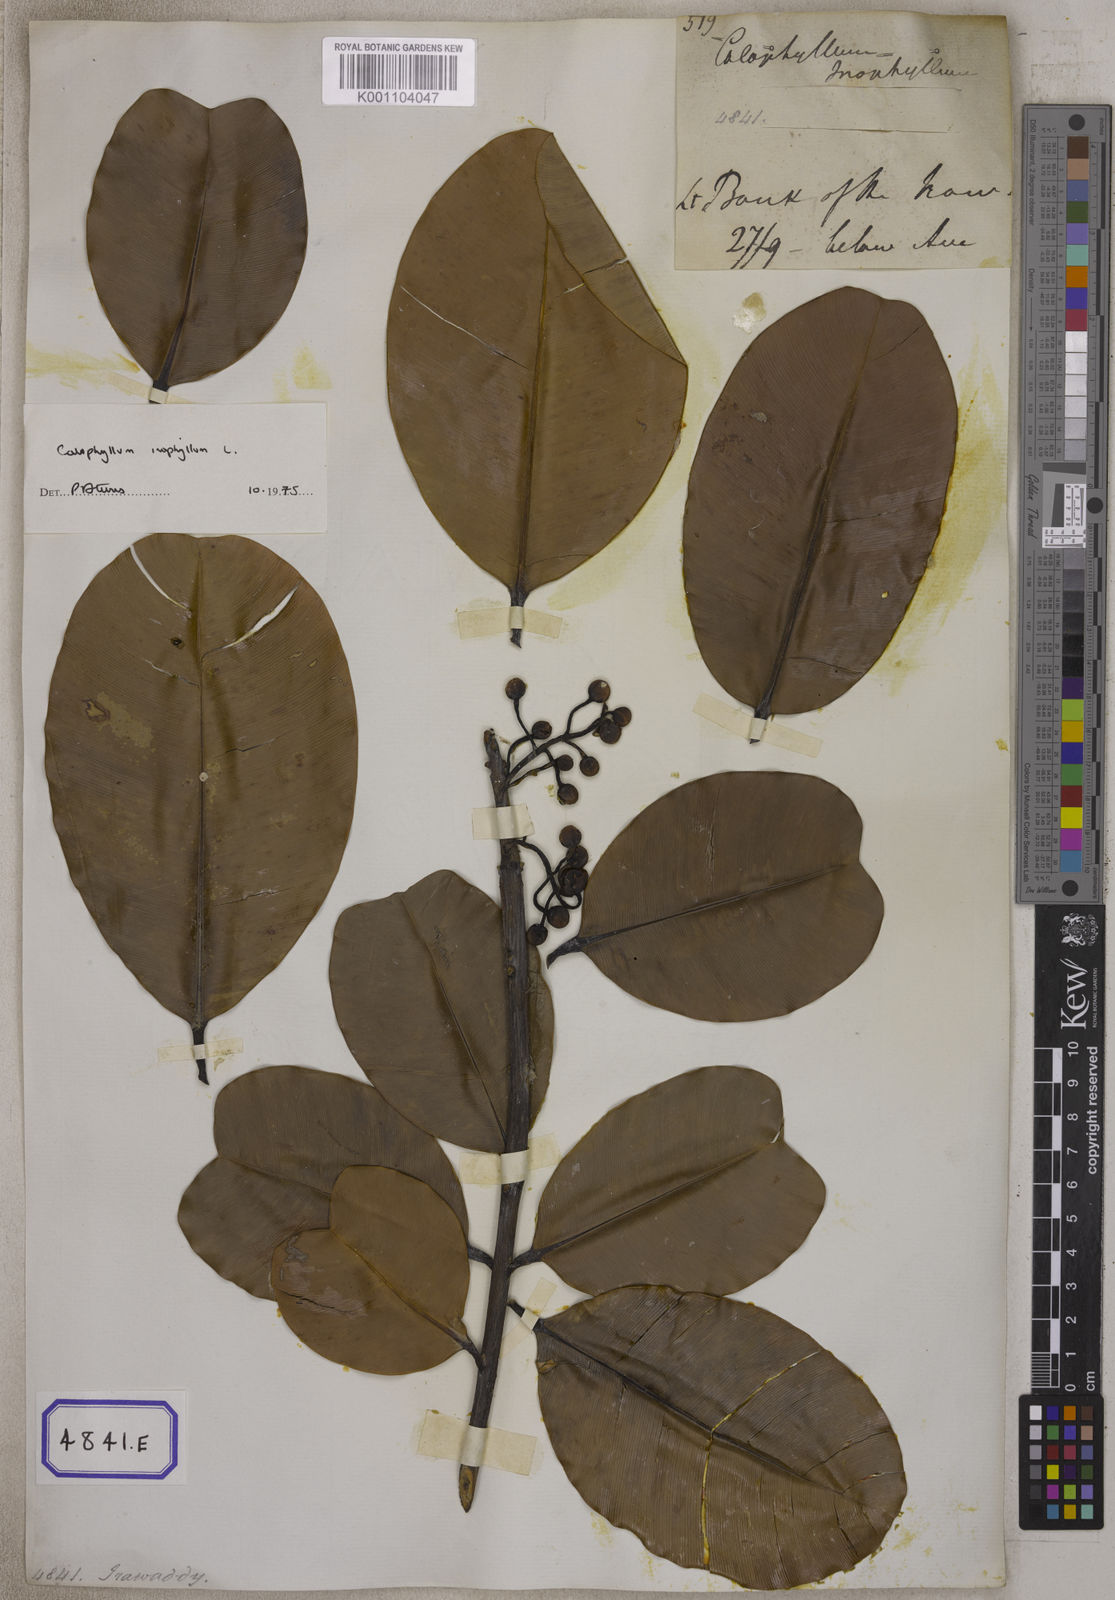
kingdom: Plantae
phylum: Tracheophyta
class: Magnoliopsida
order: Malpighiales
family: Calophyllaceae
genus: Calophyllum
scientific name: Calophyllum inophyllum
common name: Alexandrian laurel
